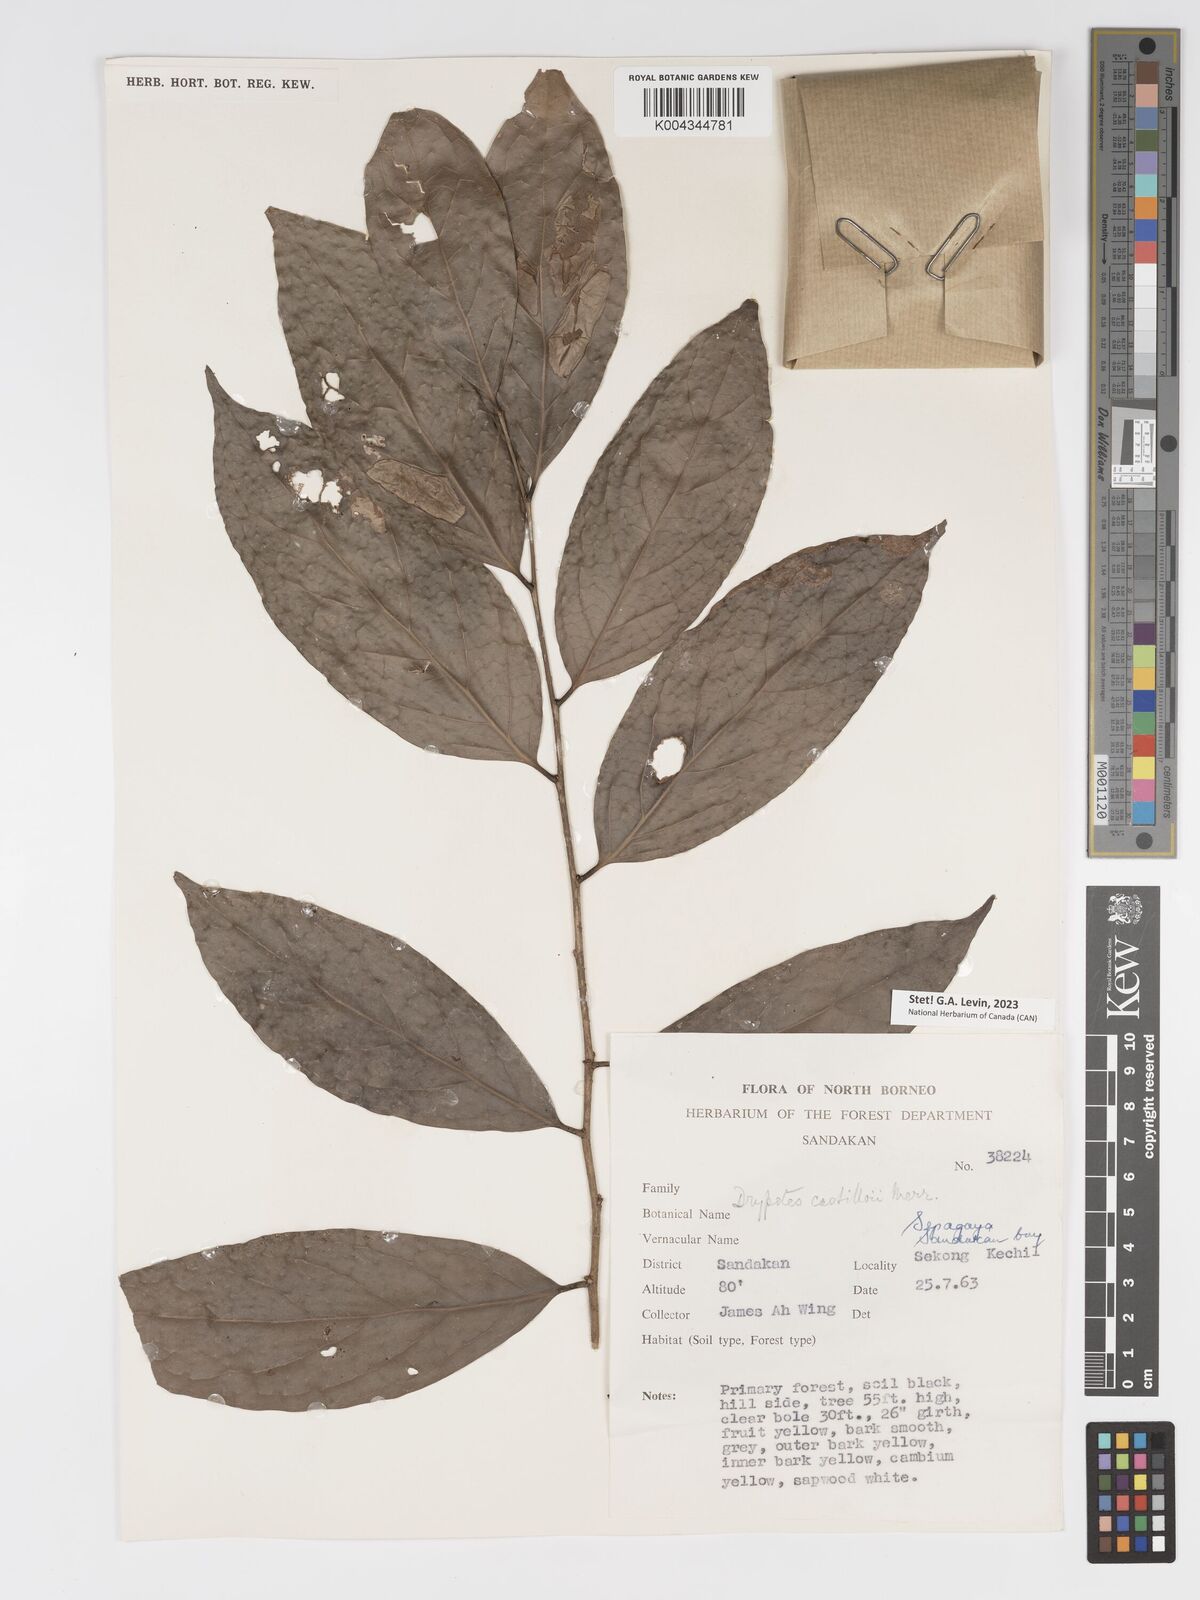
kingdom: Plantae
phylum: Tracheophyta
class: Magnoliopsida
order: Malpighiales
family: Putranjivaceae
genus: Drypetes
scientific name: Drypetes castilloi
